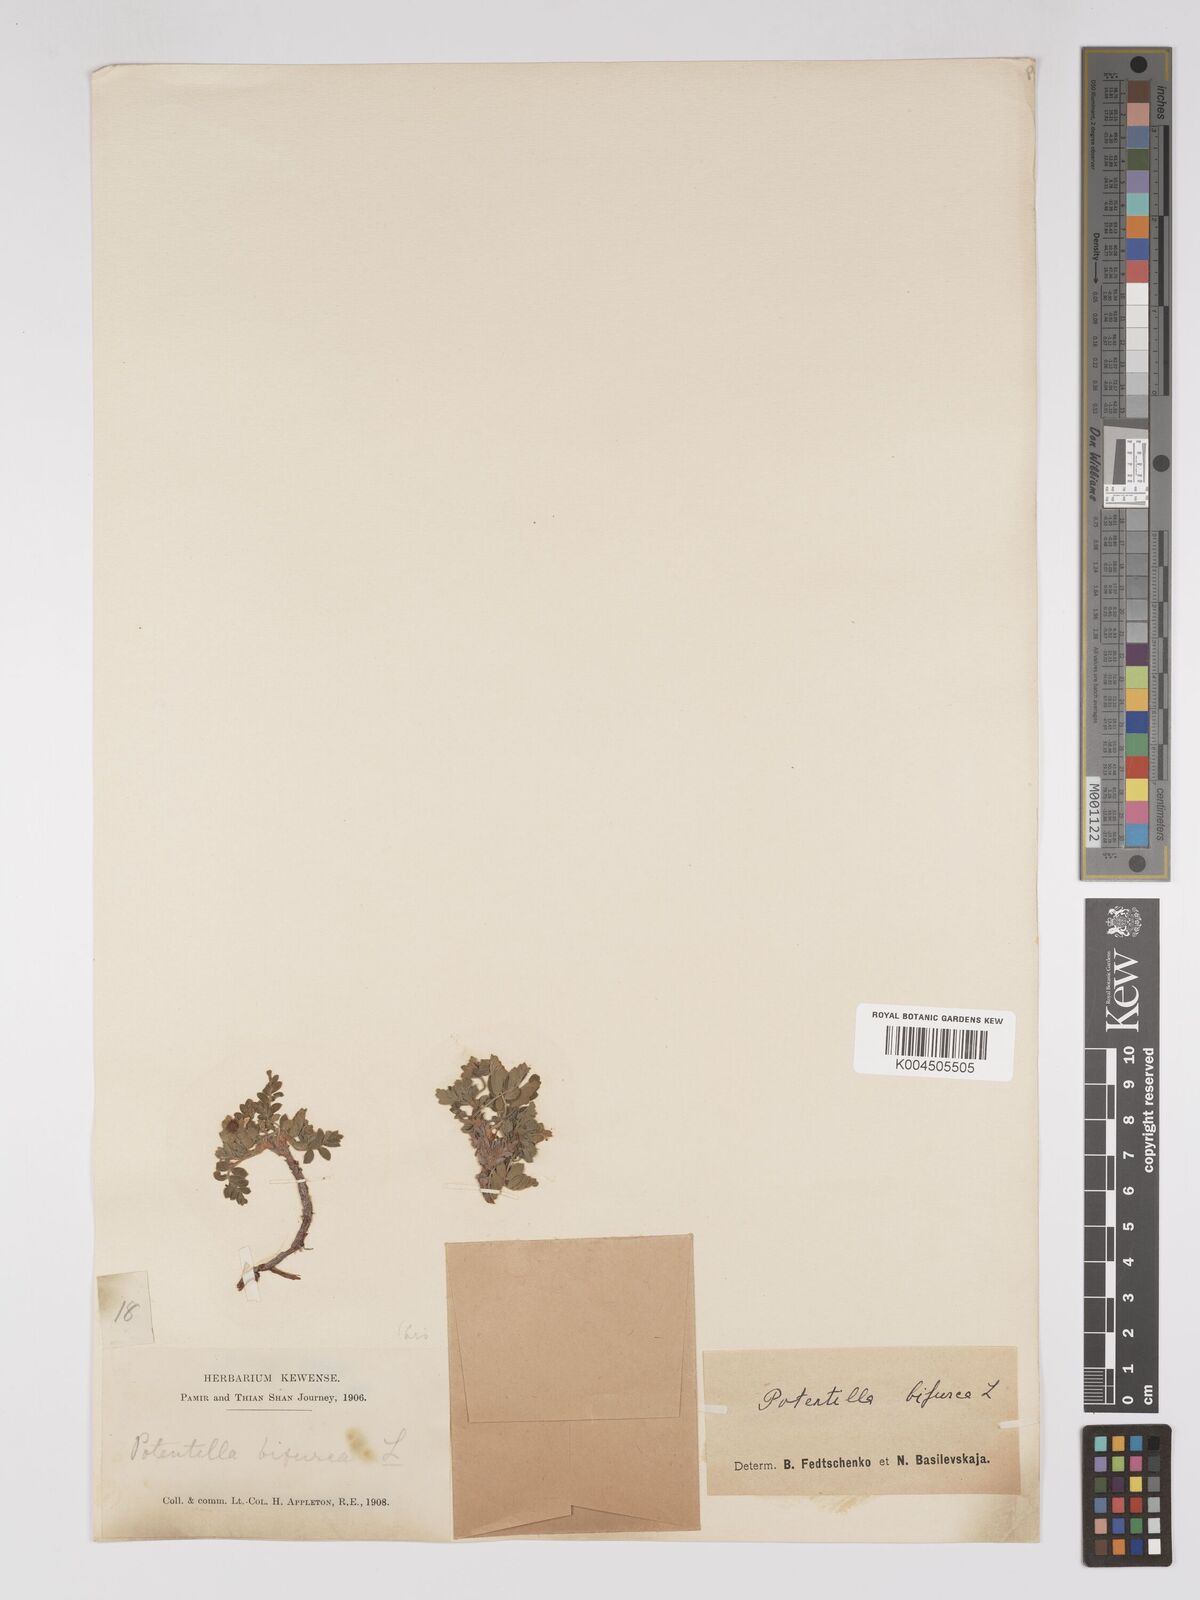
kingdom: Plantae
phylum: Tracheophyta
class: Magnoliopsida
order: Rosales
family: Rosaceae
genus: Sibbaldianthe
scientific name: Sibbaldianthe bifurca
